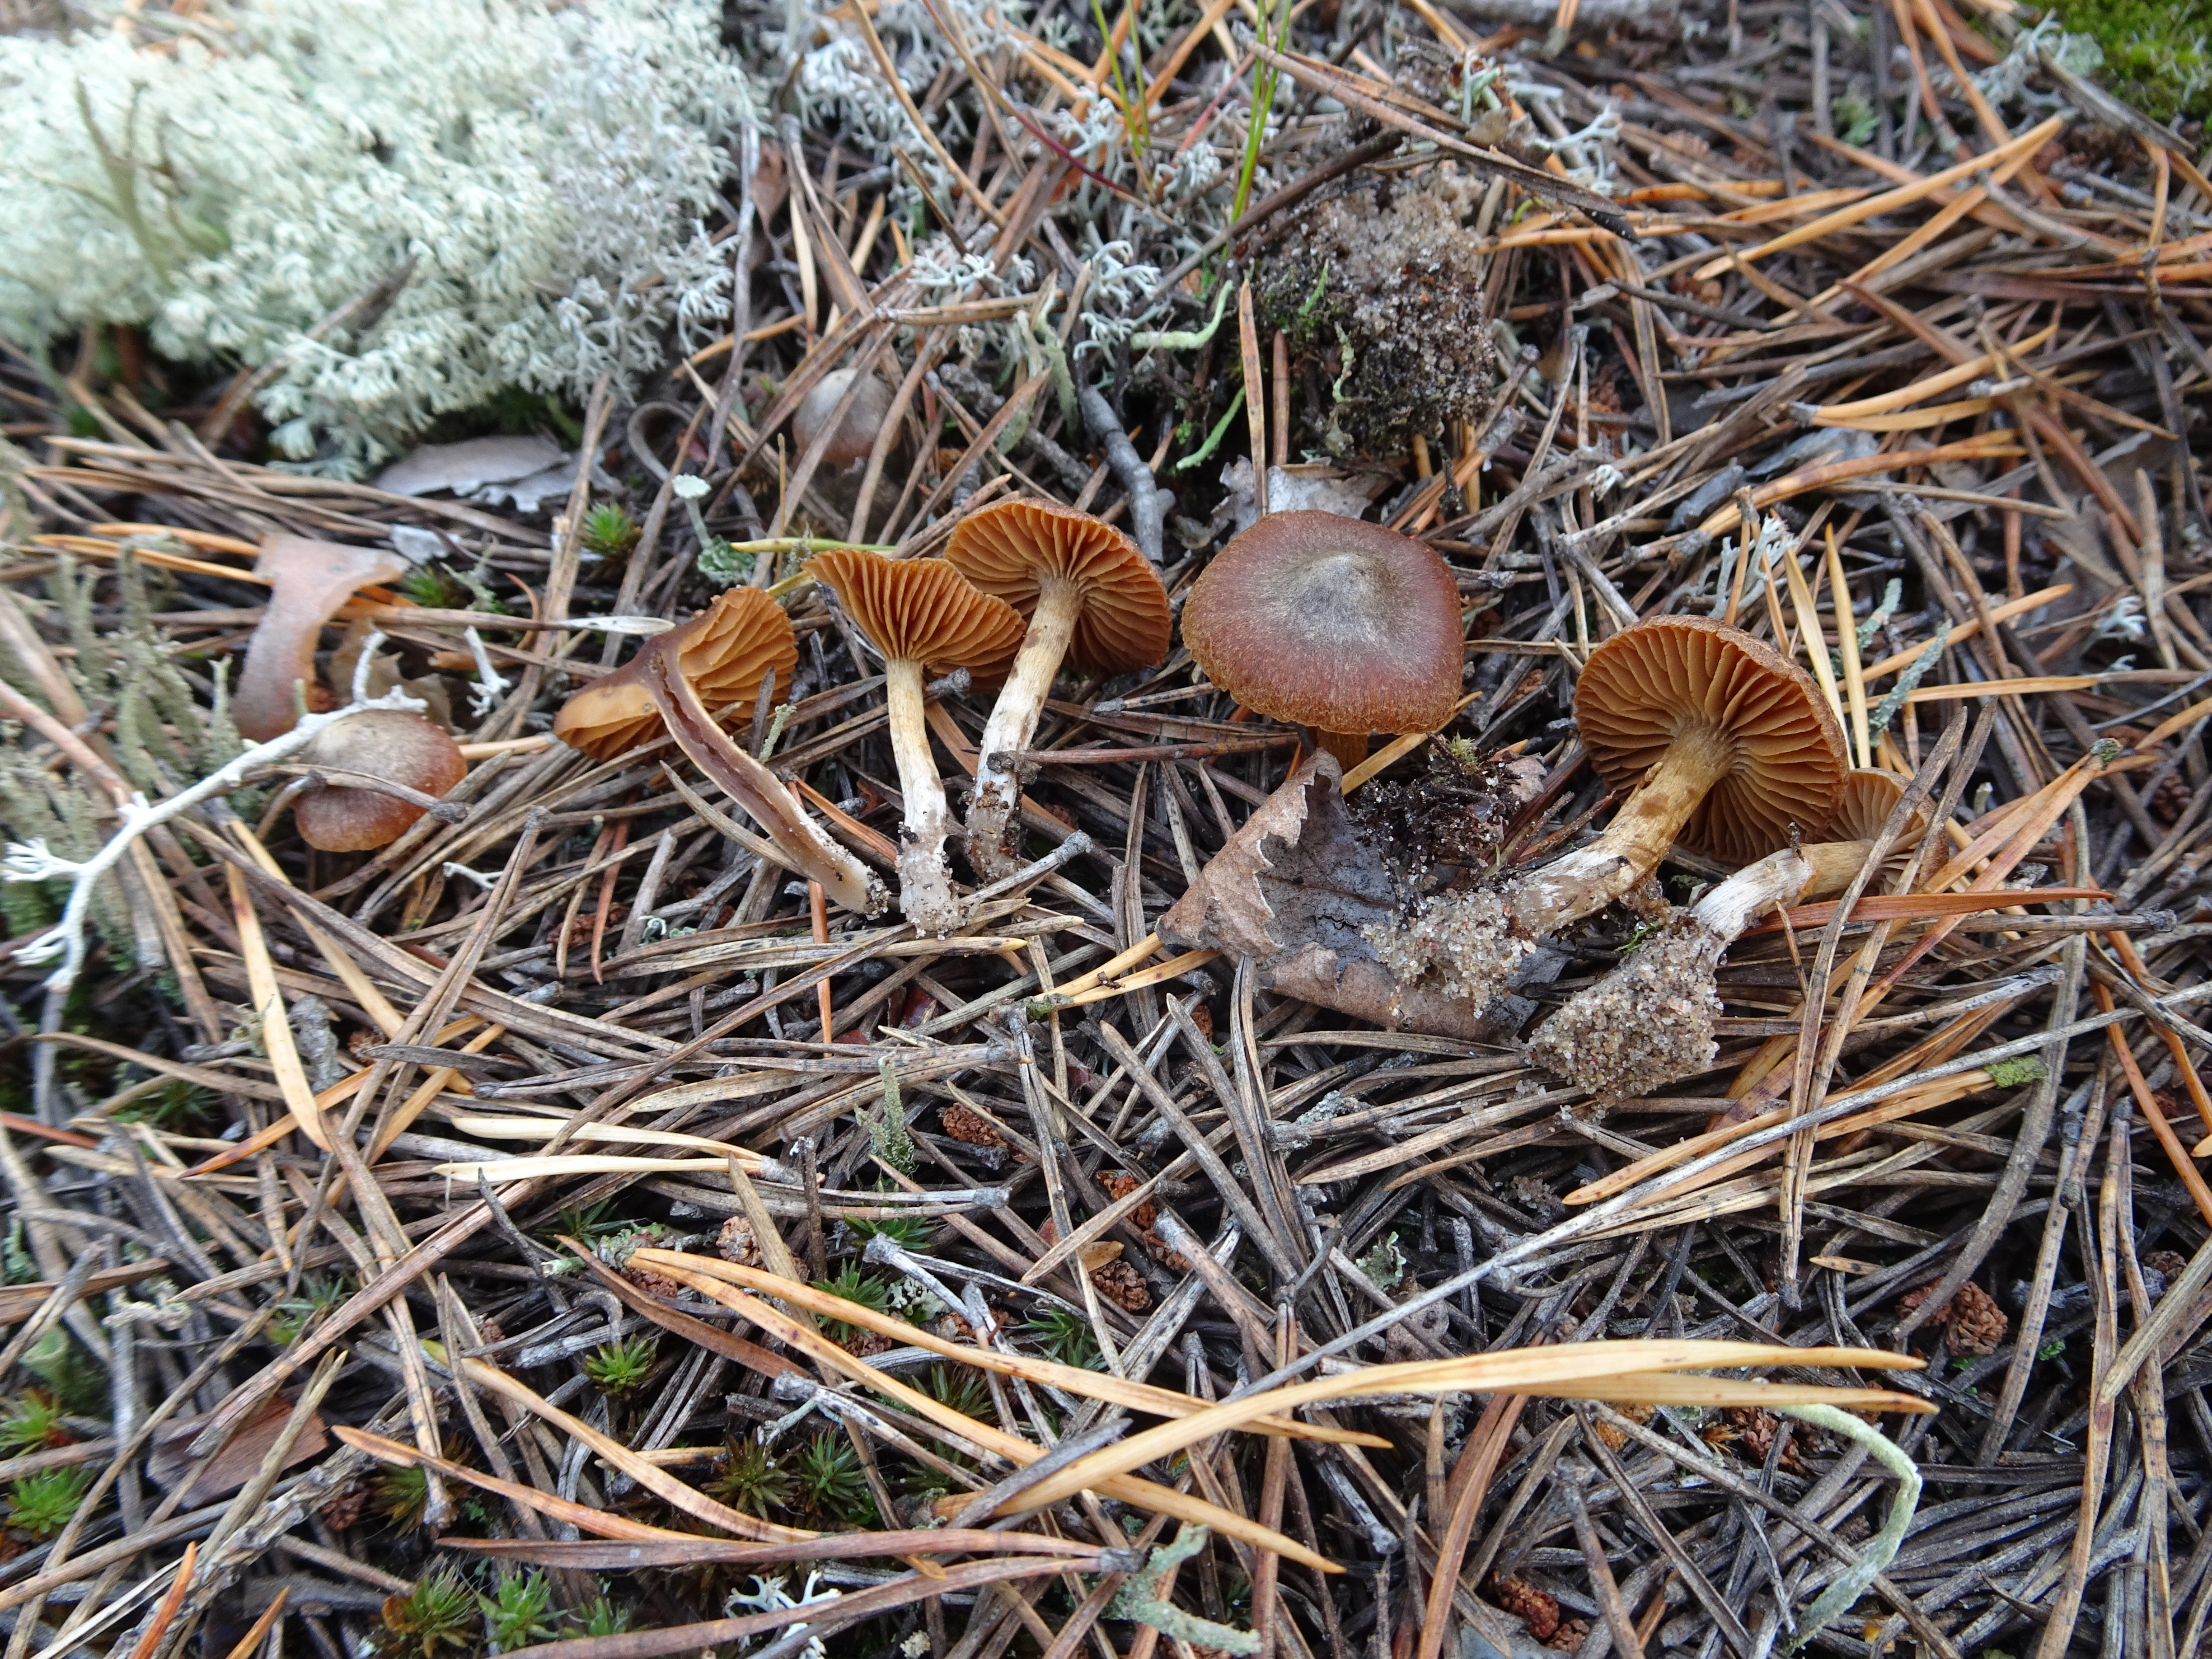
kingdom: Fungi
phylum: Basidiomycota
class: Agaricomycetes
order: Agaricales
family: Cortinariaceae
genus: Cortinarius
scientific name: Cortinarius
